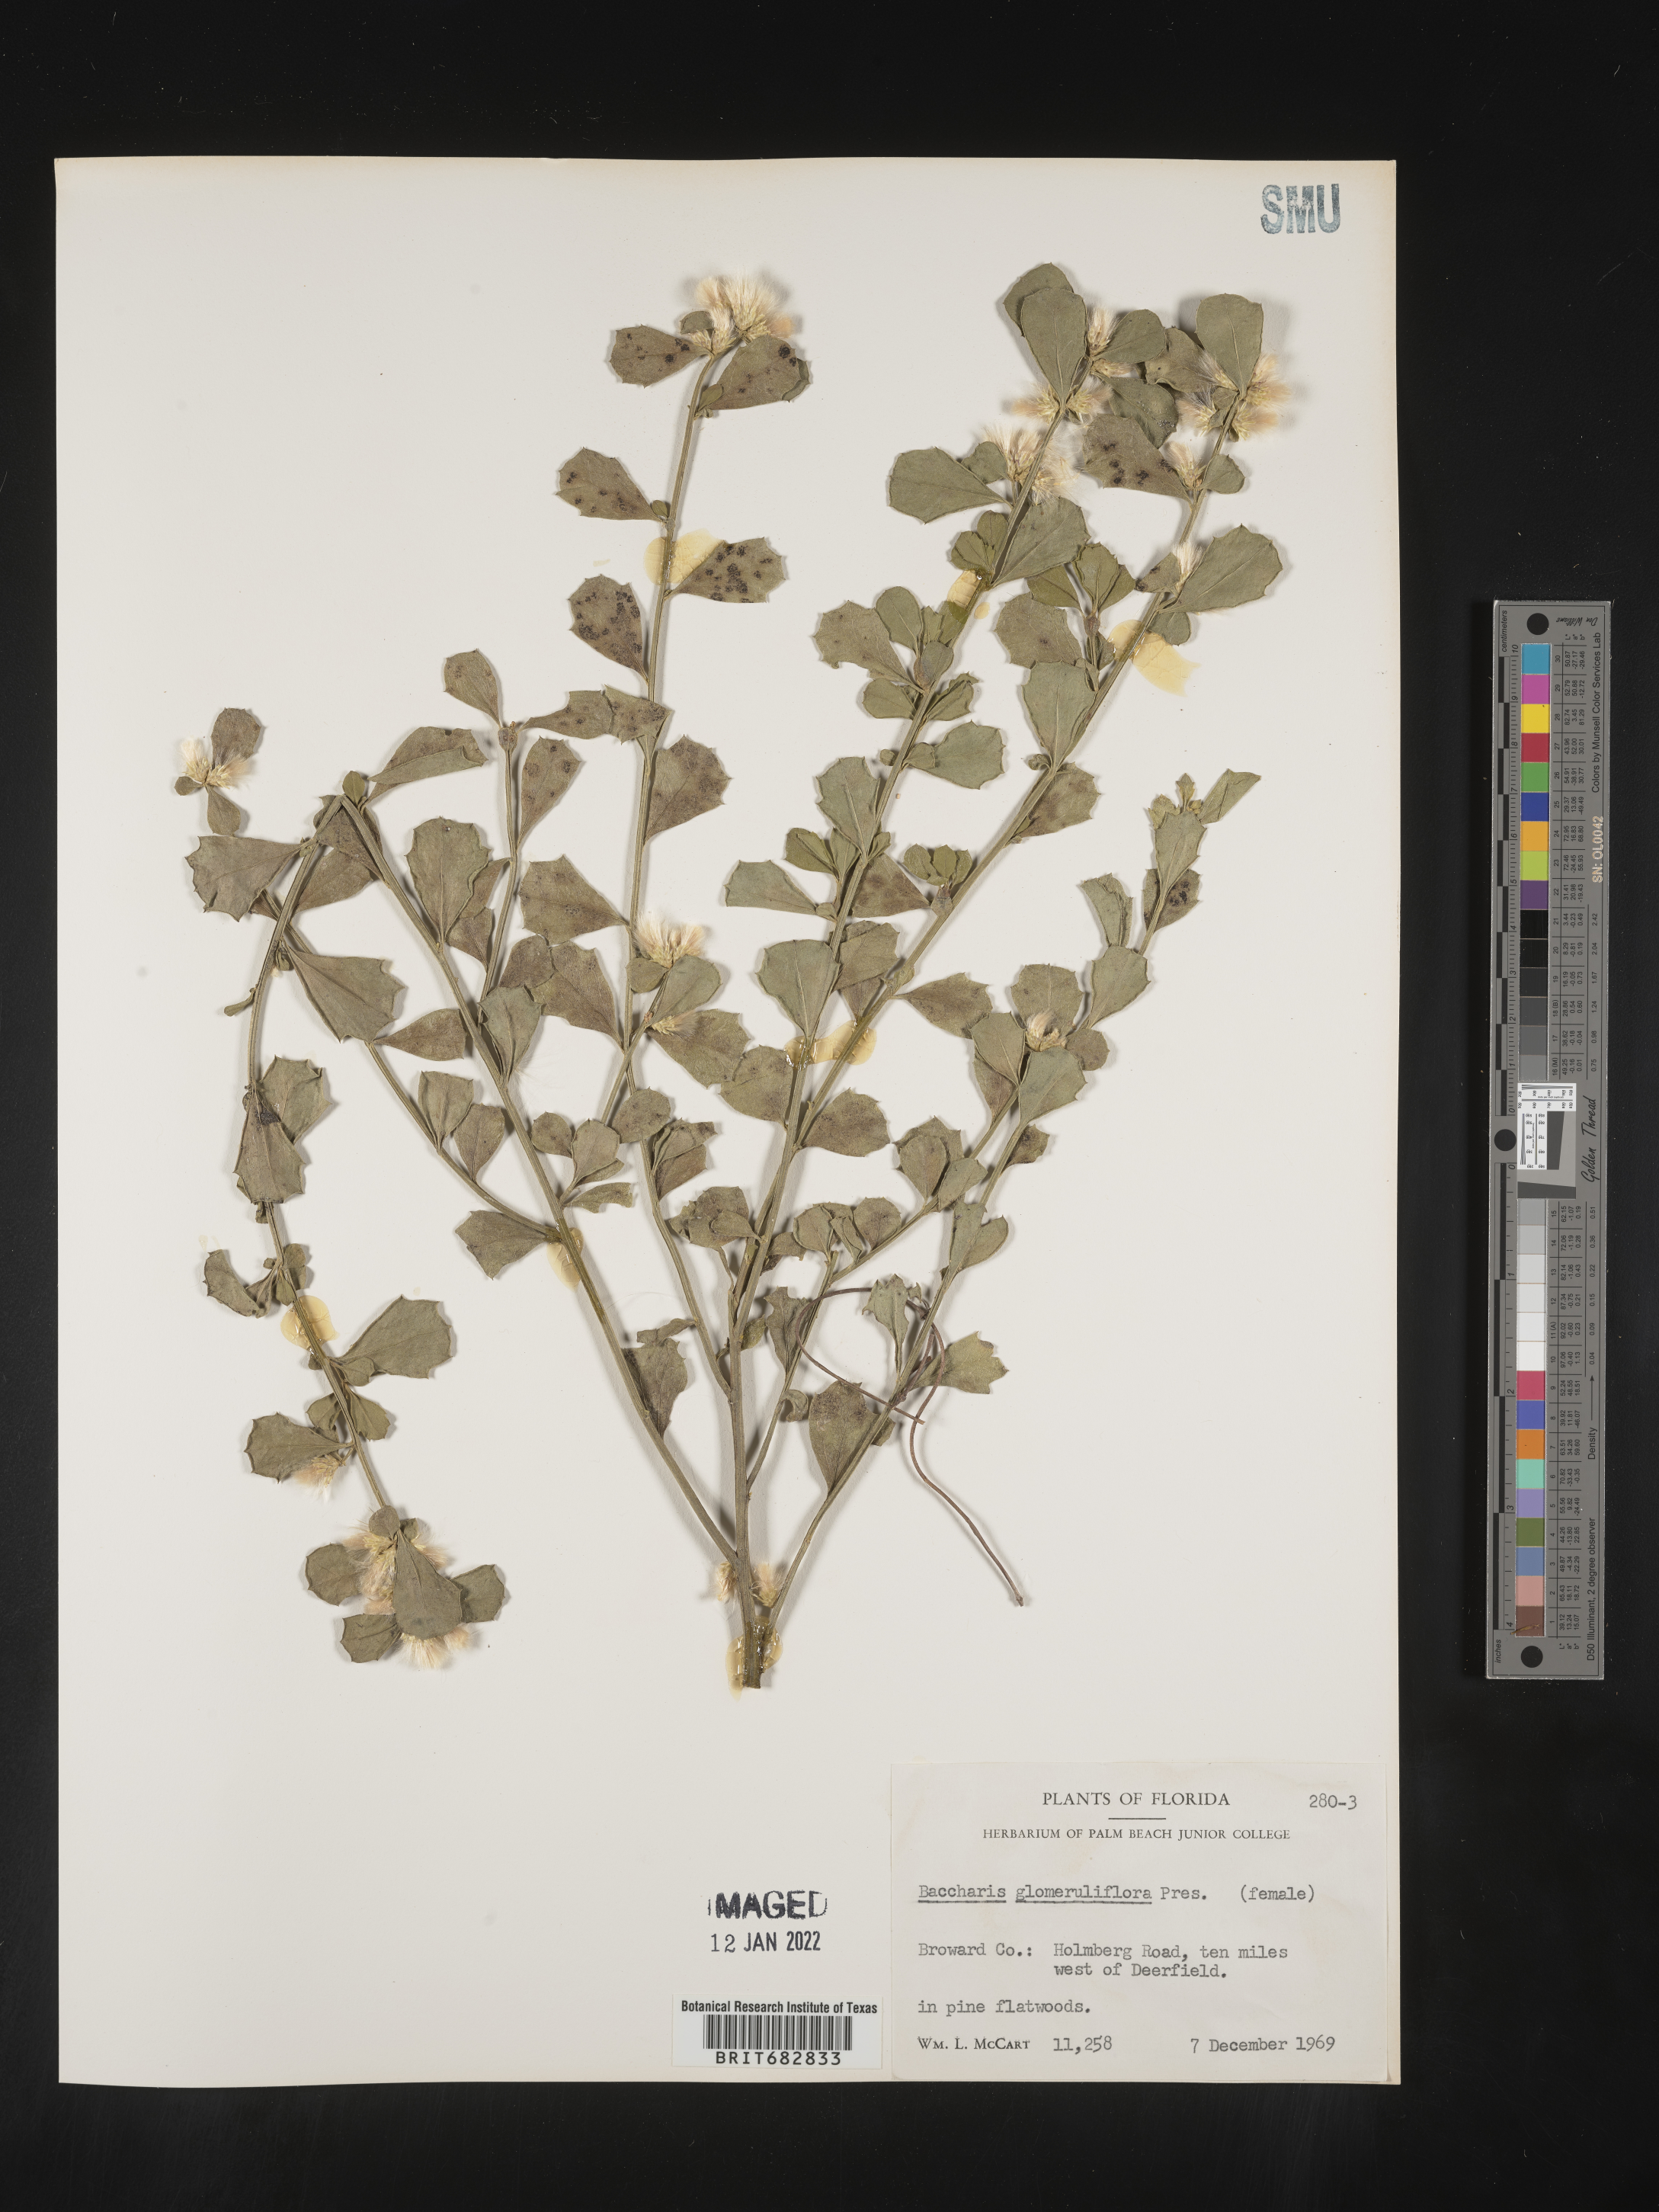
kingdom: Plantae
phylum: Tracheophyta
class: Magnoliopsida
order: Asterales
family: Asteraceae
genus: Baccharis
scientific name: Baccharis glomeruliflora
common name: Silverling groundsel bush
